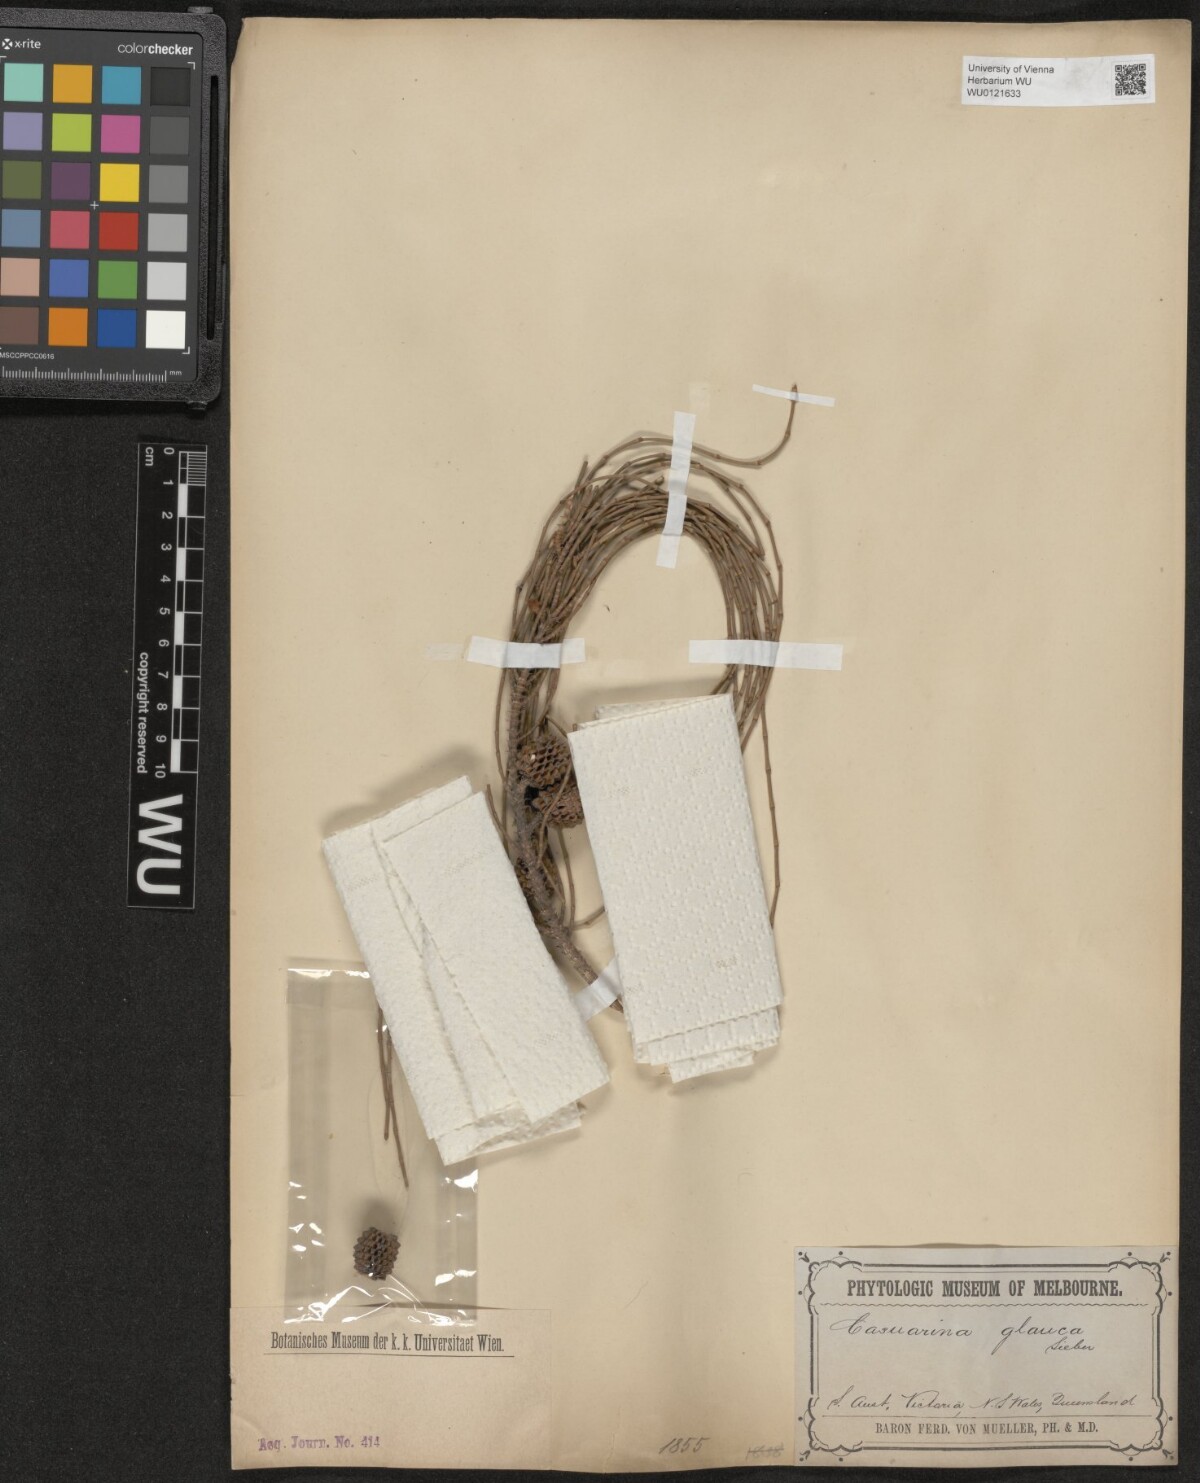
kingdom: Plantae
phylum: Tracheophyta
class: Magnoliopsida
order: Fagales
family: Casuarinaceae
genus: Casuarina
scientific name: Casuarina glauca
